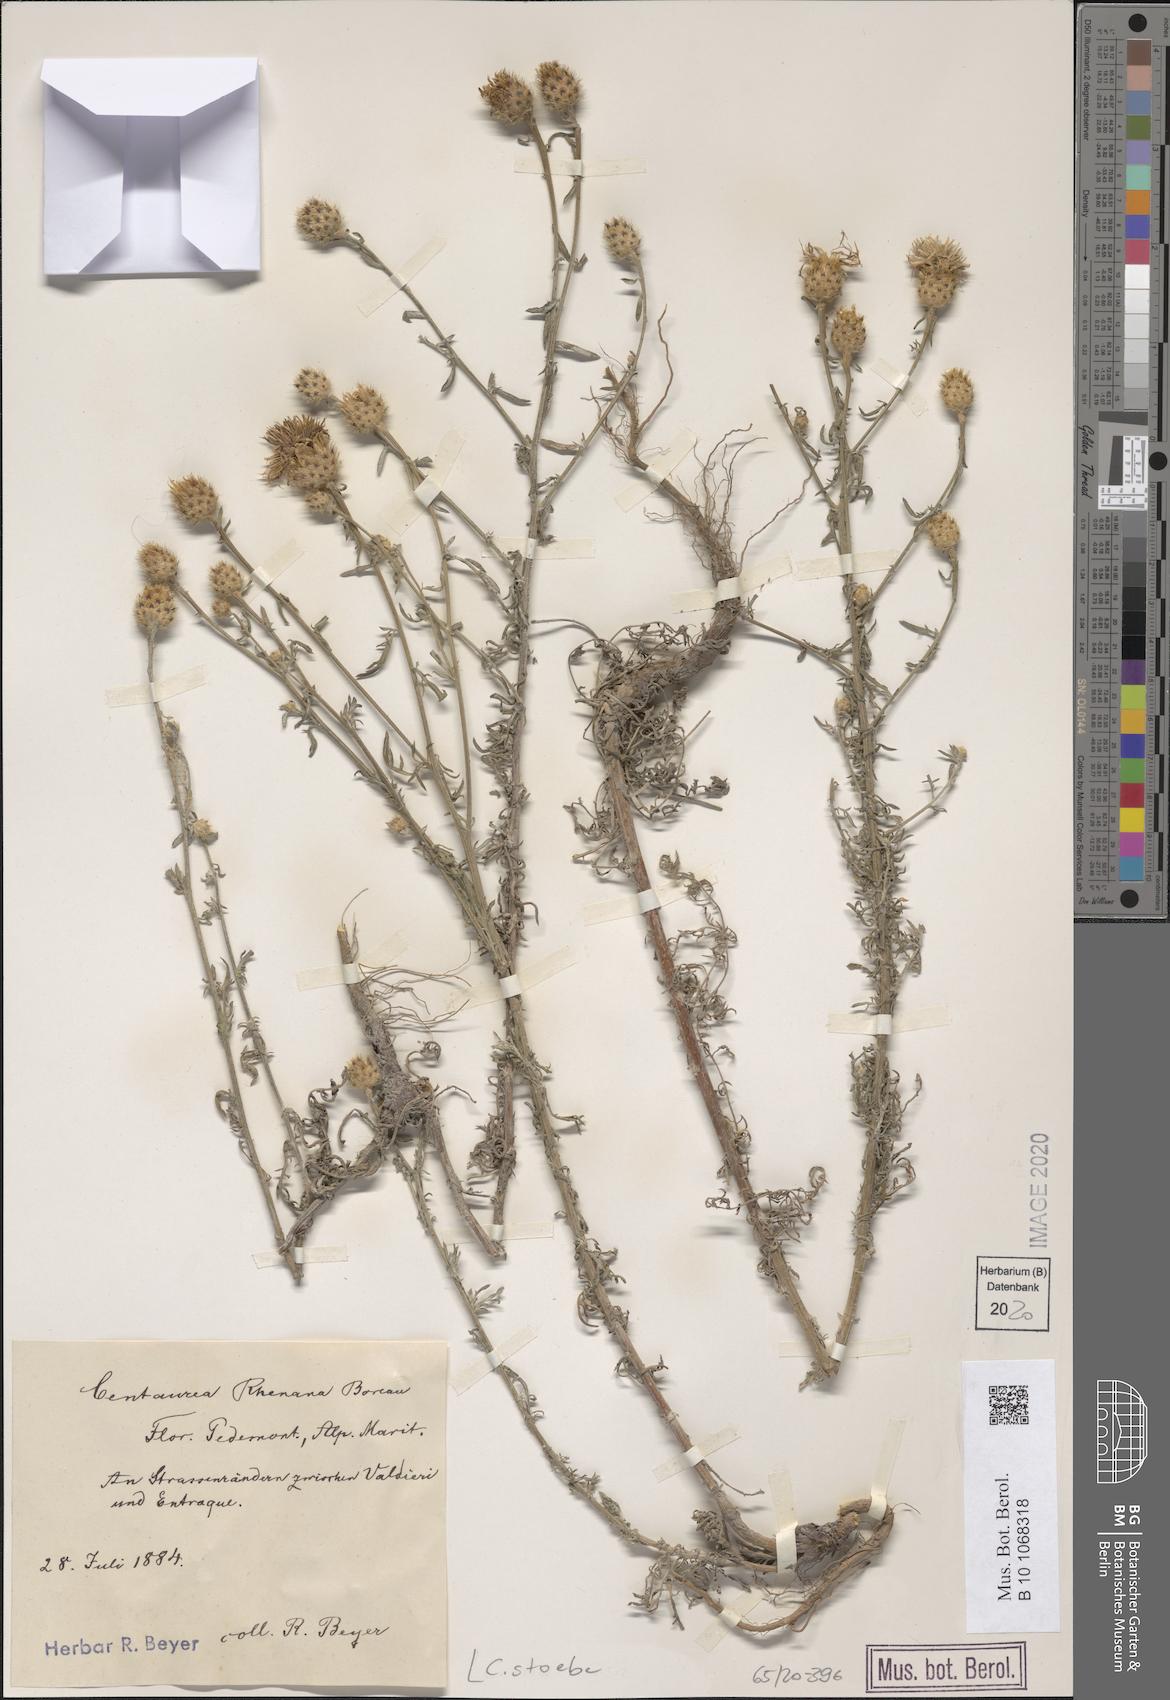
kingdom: Plantae
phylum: Tracheophyta
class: Magnoliopsida
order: Asterales
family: Asteraceae
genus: Centaurea
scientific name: Centaurea stoebe
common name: Spotted knapweed
